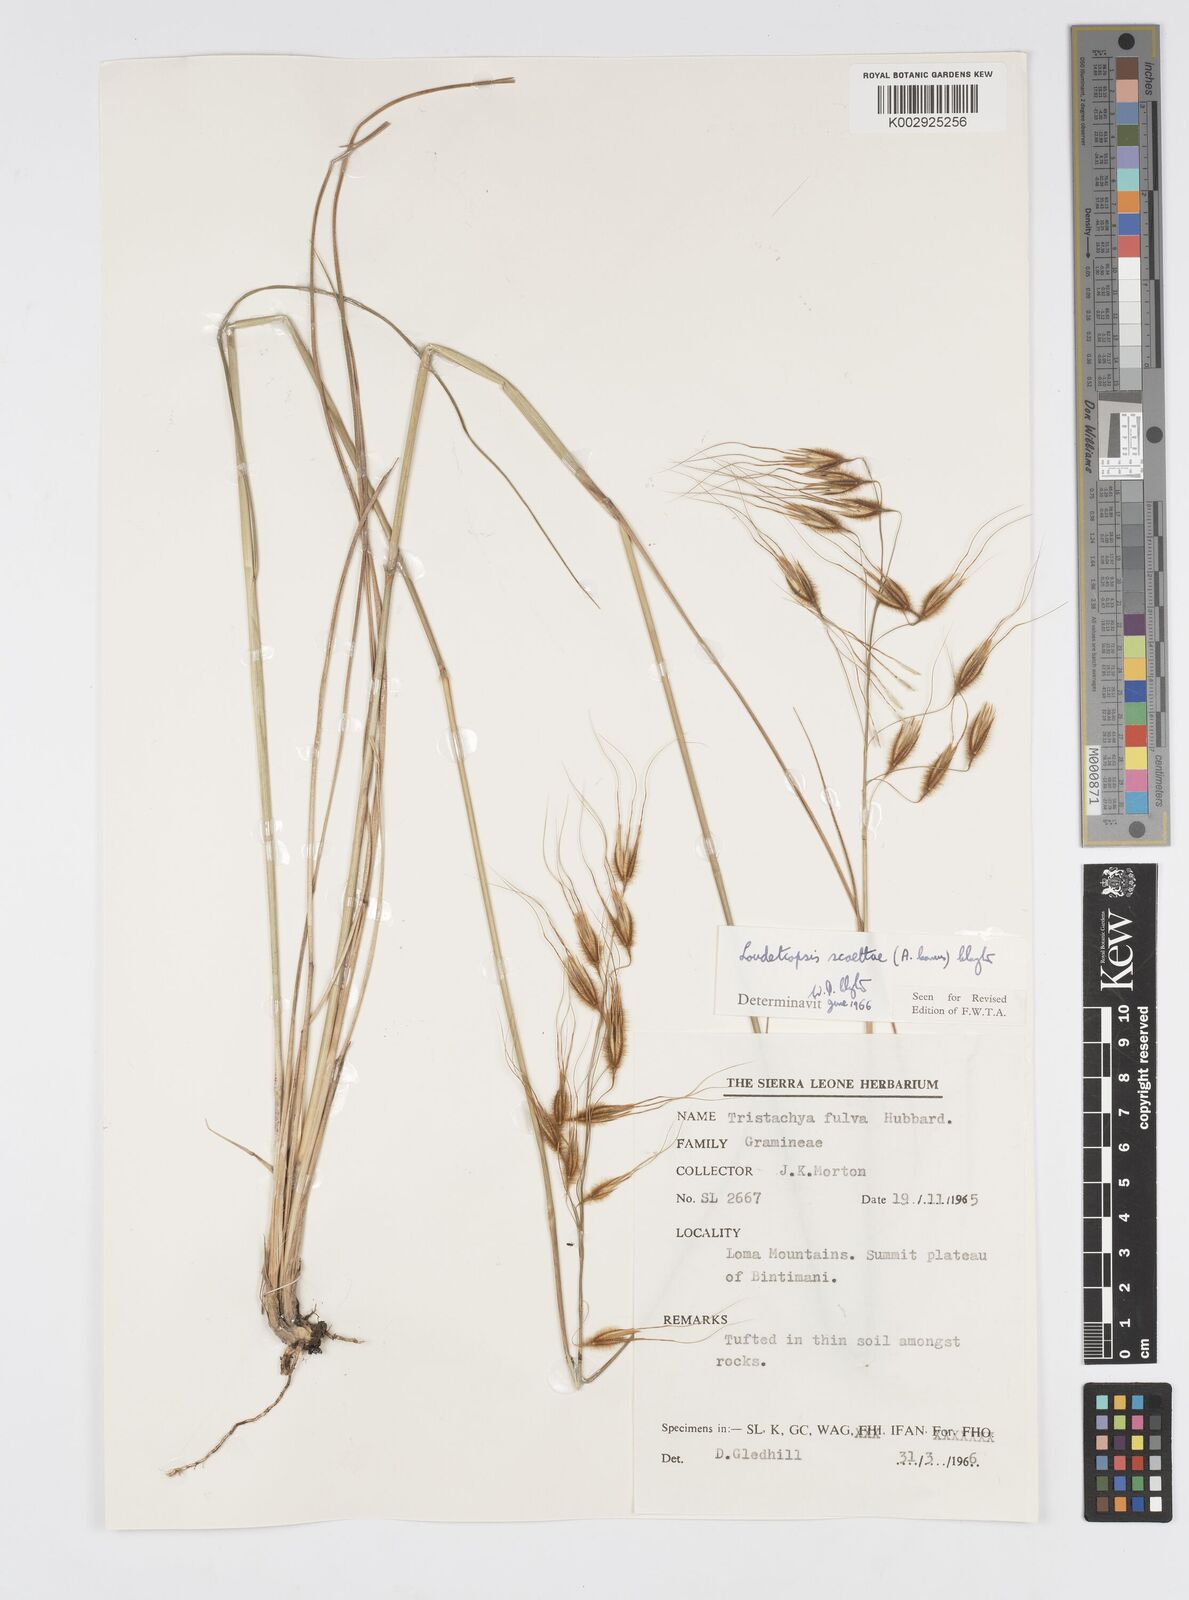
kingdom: Plantae
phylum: Tracheophyta
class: Liliopsida
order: Poales
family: Poaceae
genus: Loudetiopsis
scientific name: Loudetiopsis scaettae
